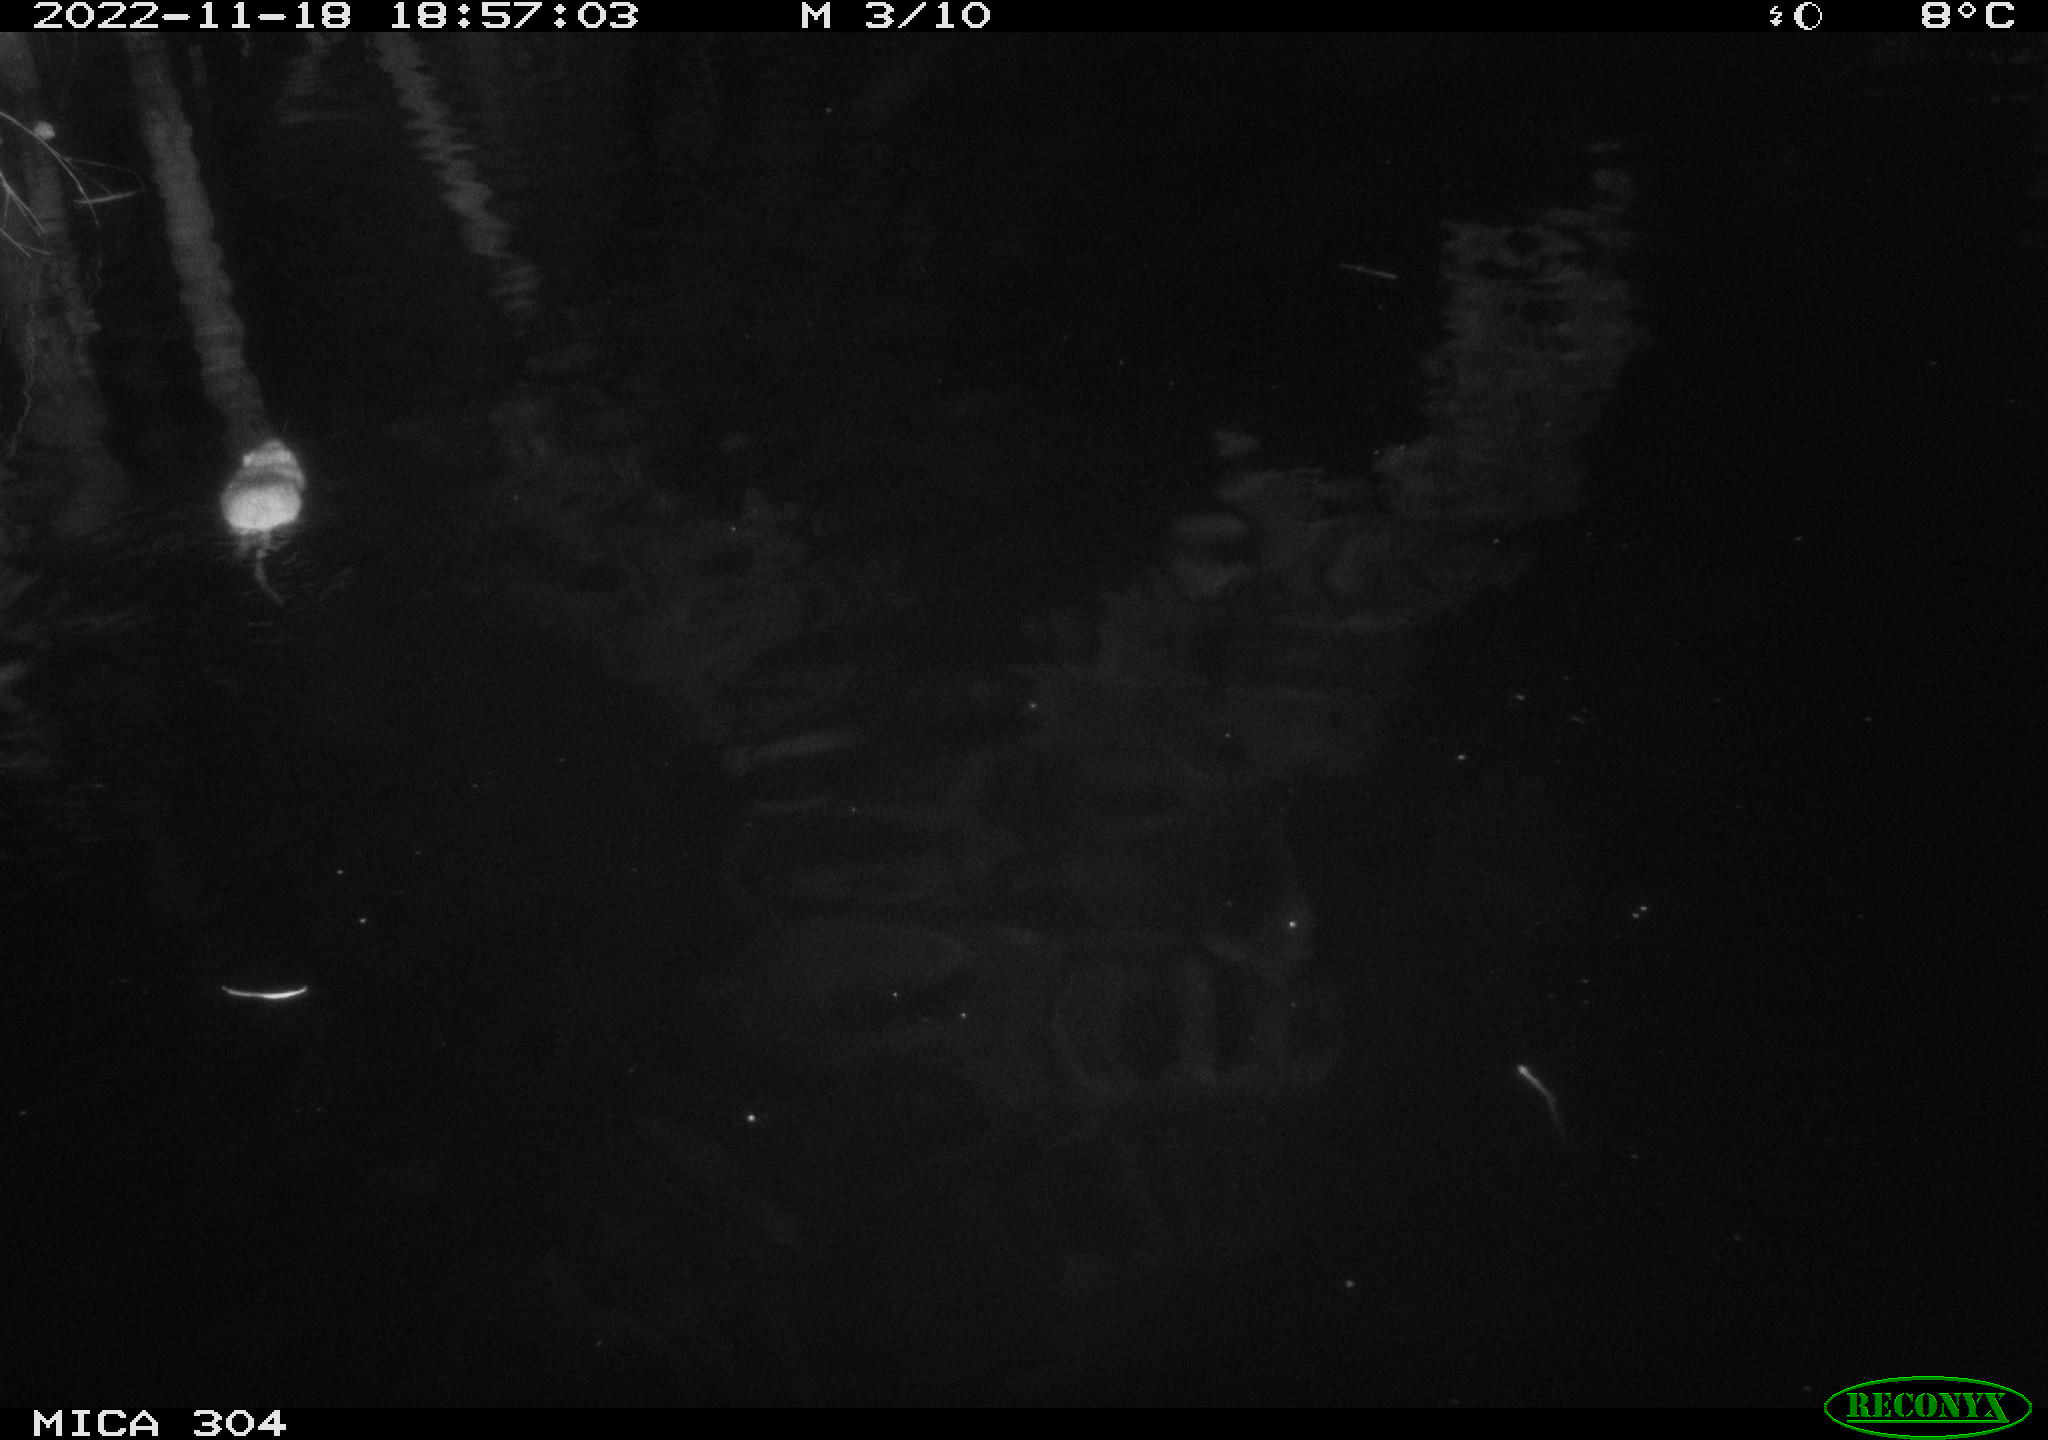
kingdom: Animalia
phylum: Chordata
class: Mammalia
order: Rodentia
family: Muridae
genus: Rattus
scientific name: Rattus norvegicus
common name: Brown rat
